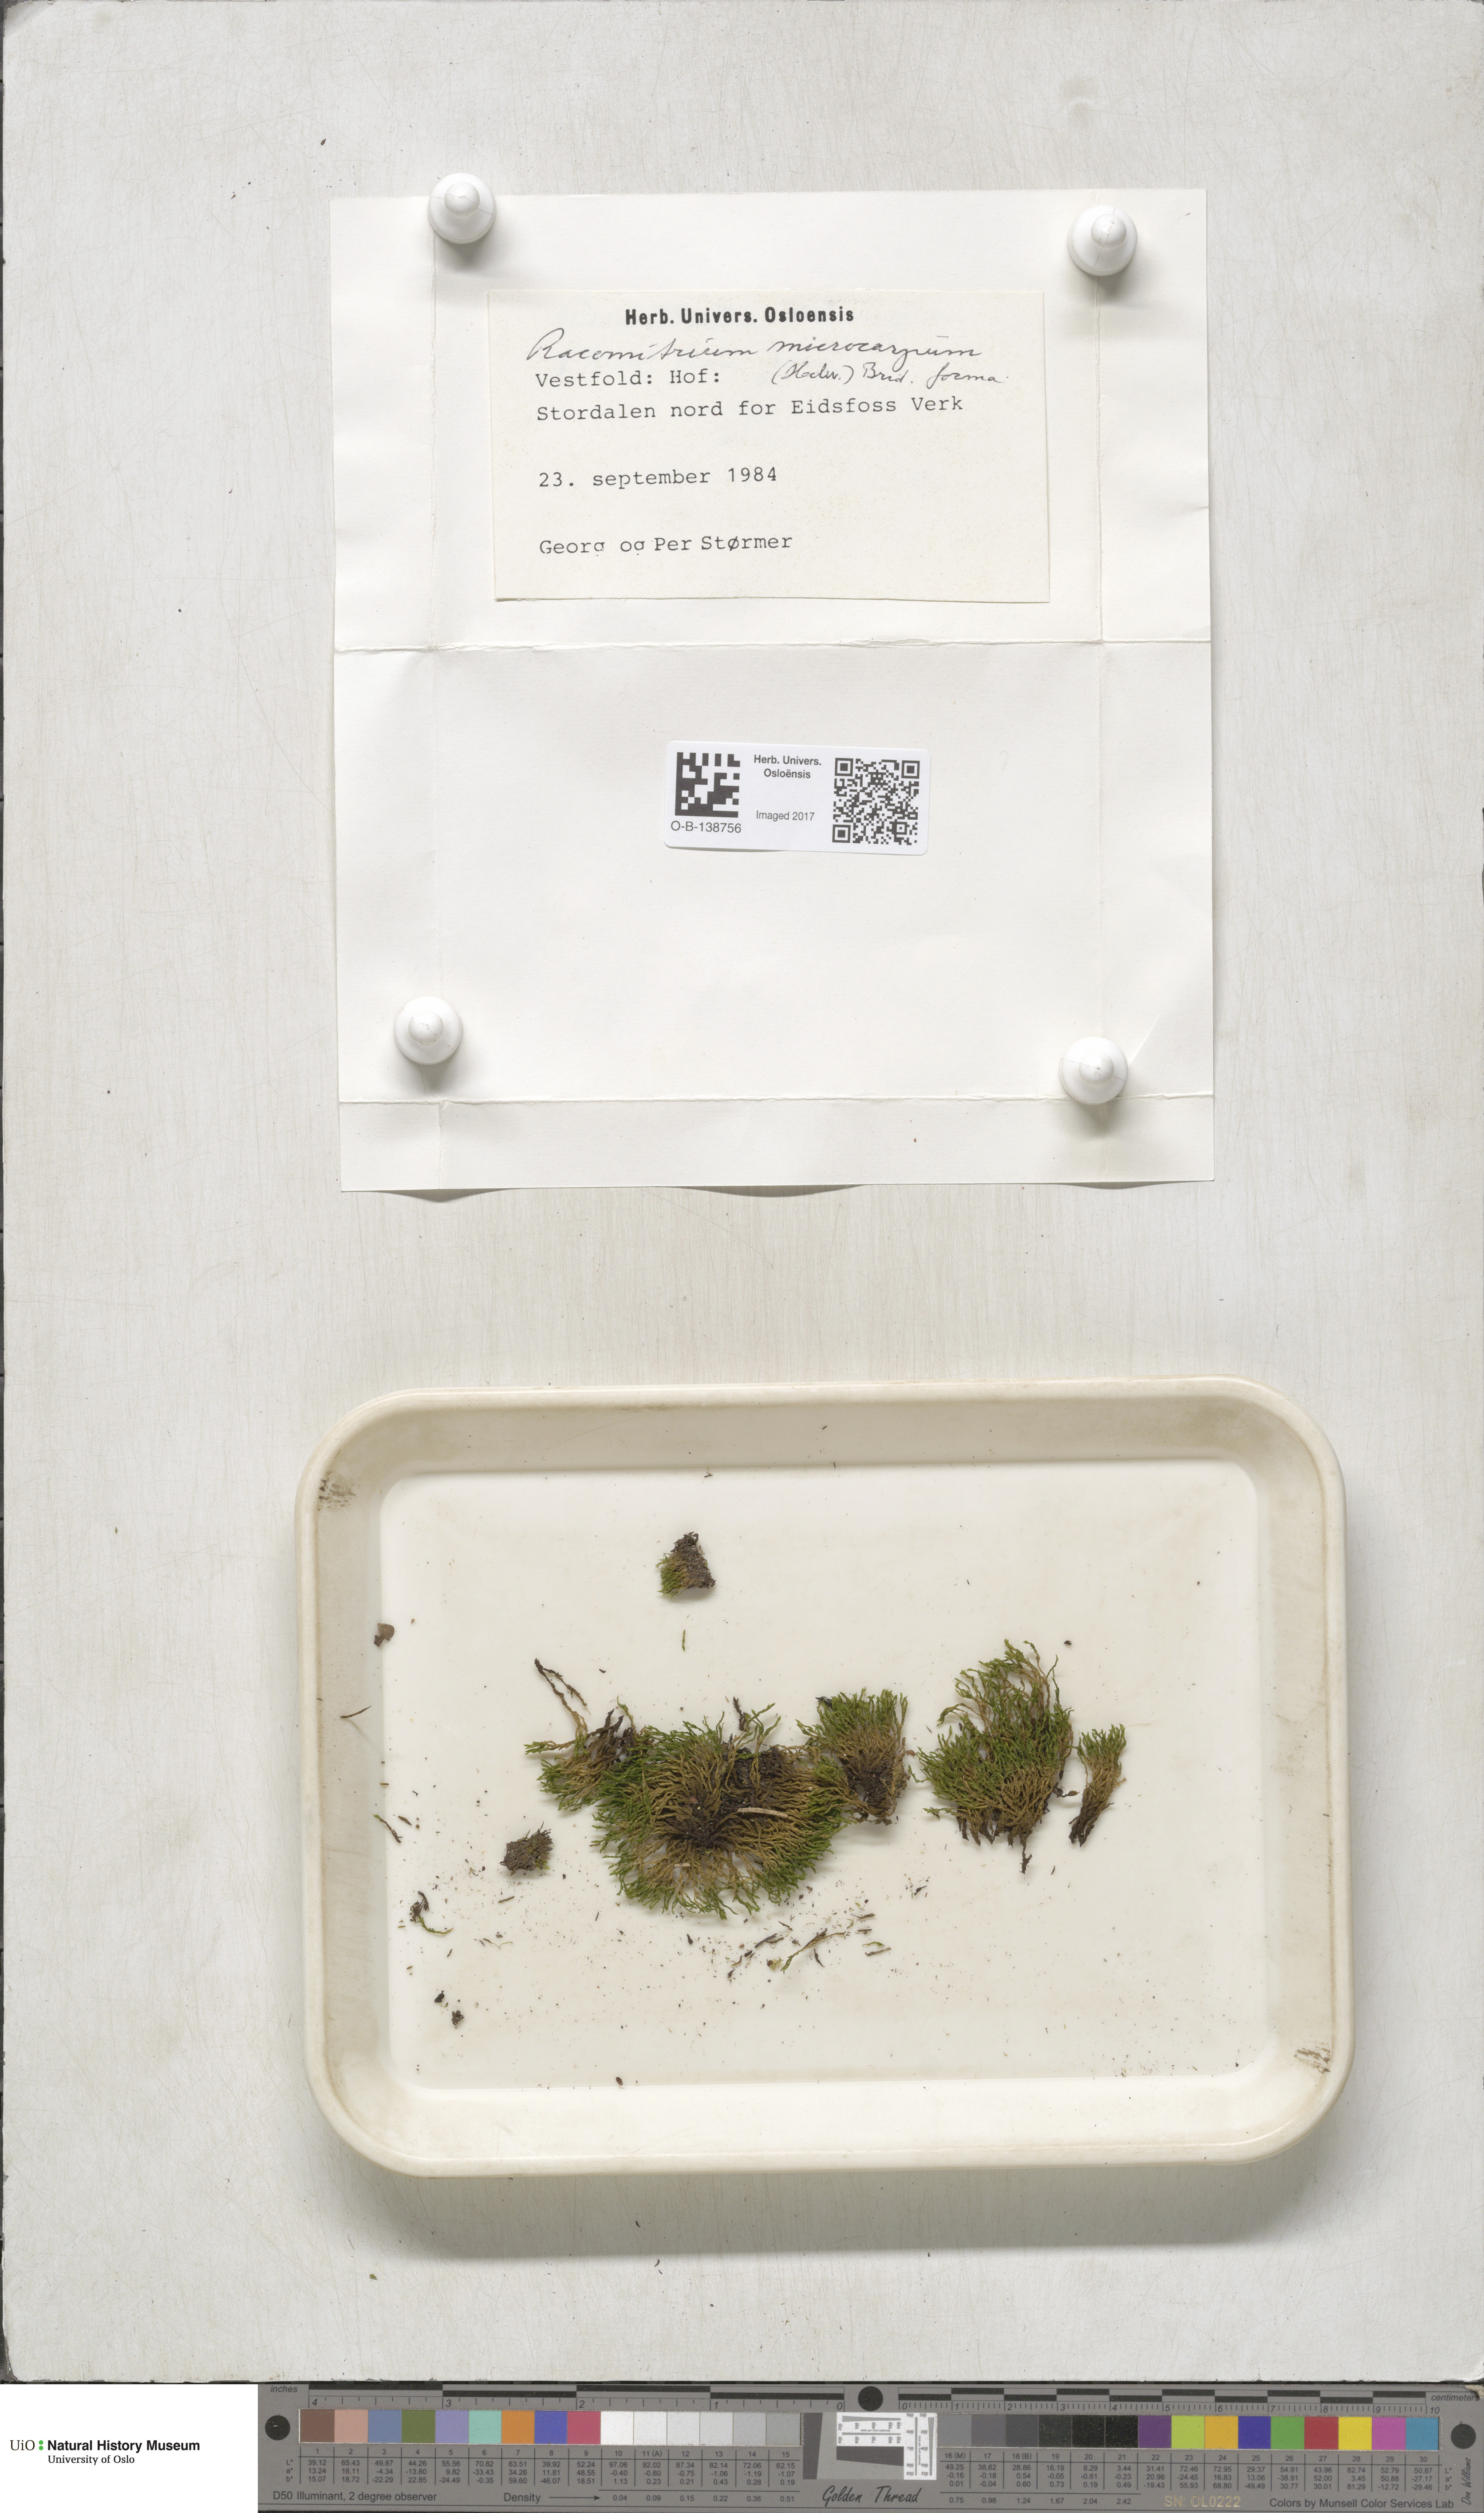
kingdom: Plantae
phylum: Bryophyta
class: Bryopsida
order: Grimmiales
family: Grimmiaceae
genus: Bucklandiella
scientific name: Bucklandiella microcarpos
